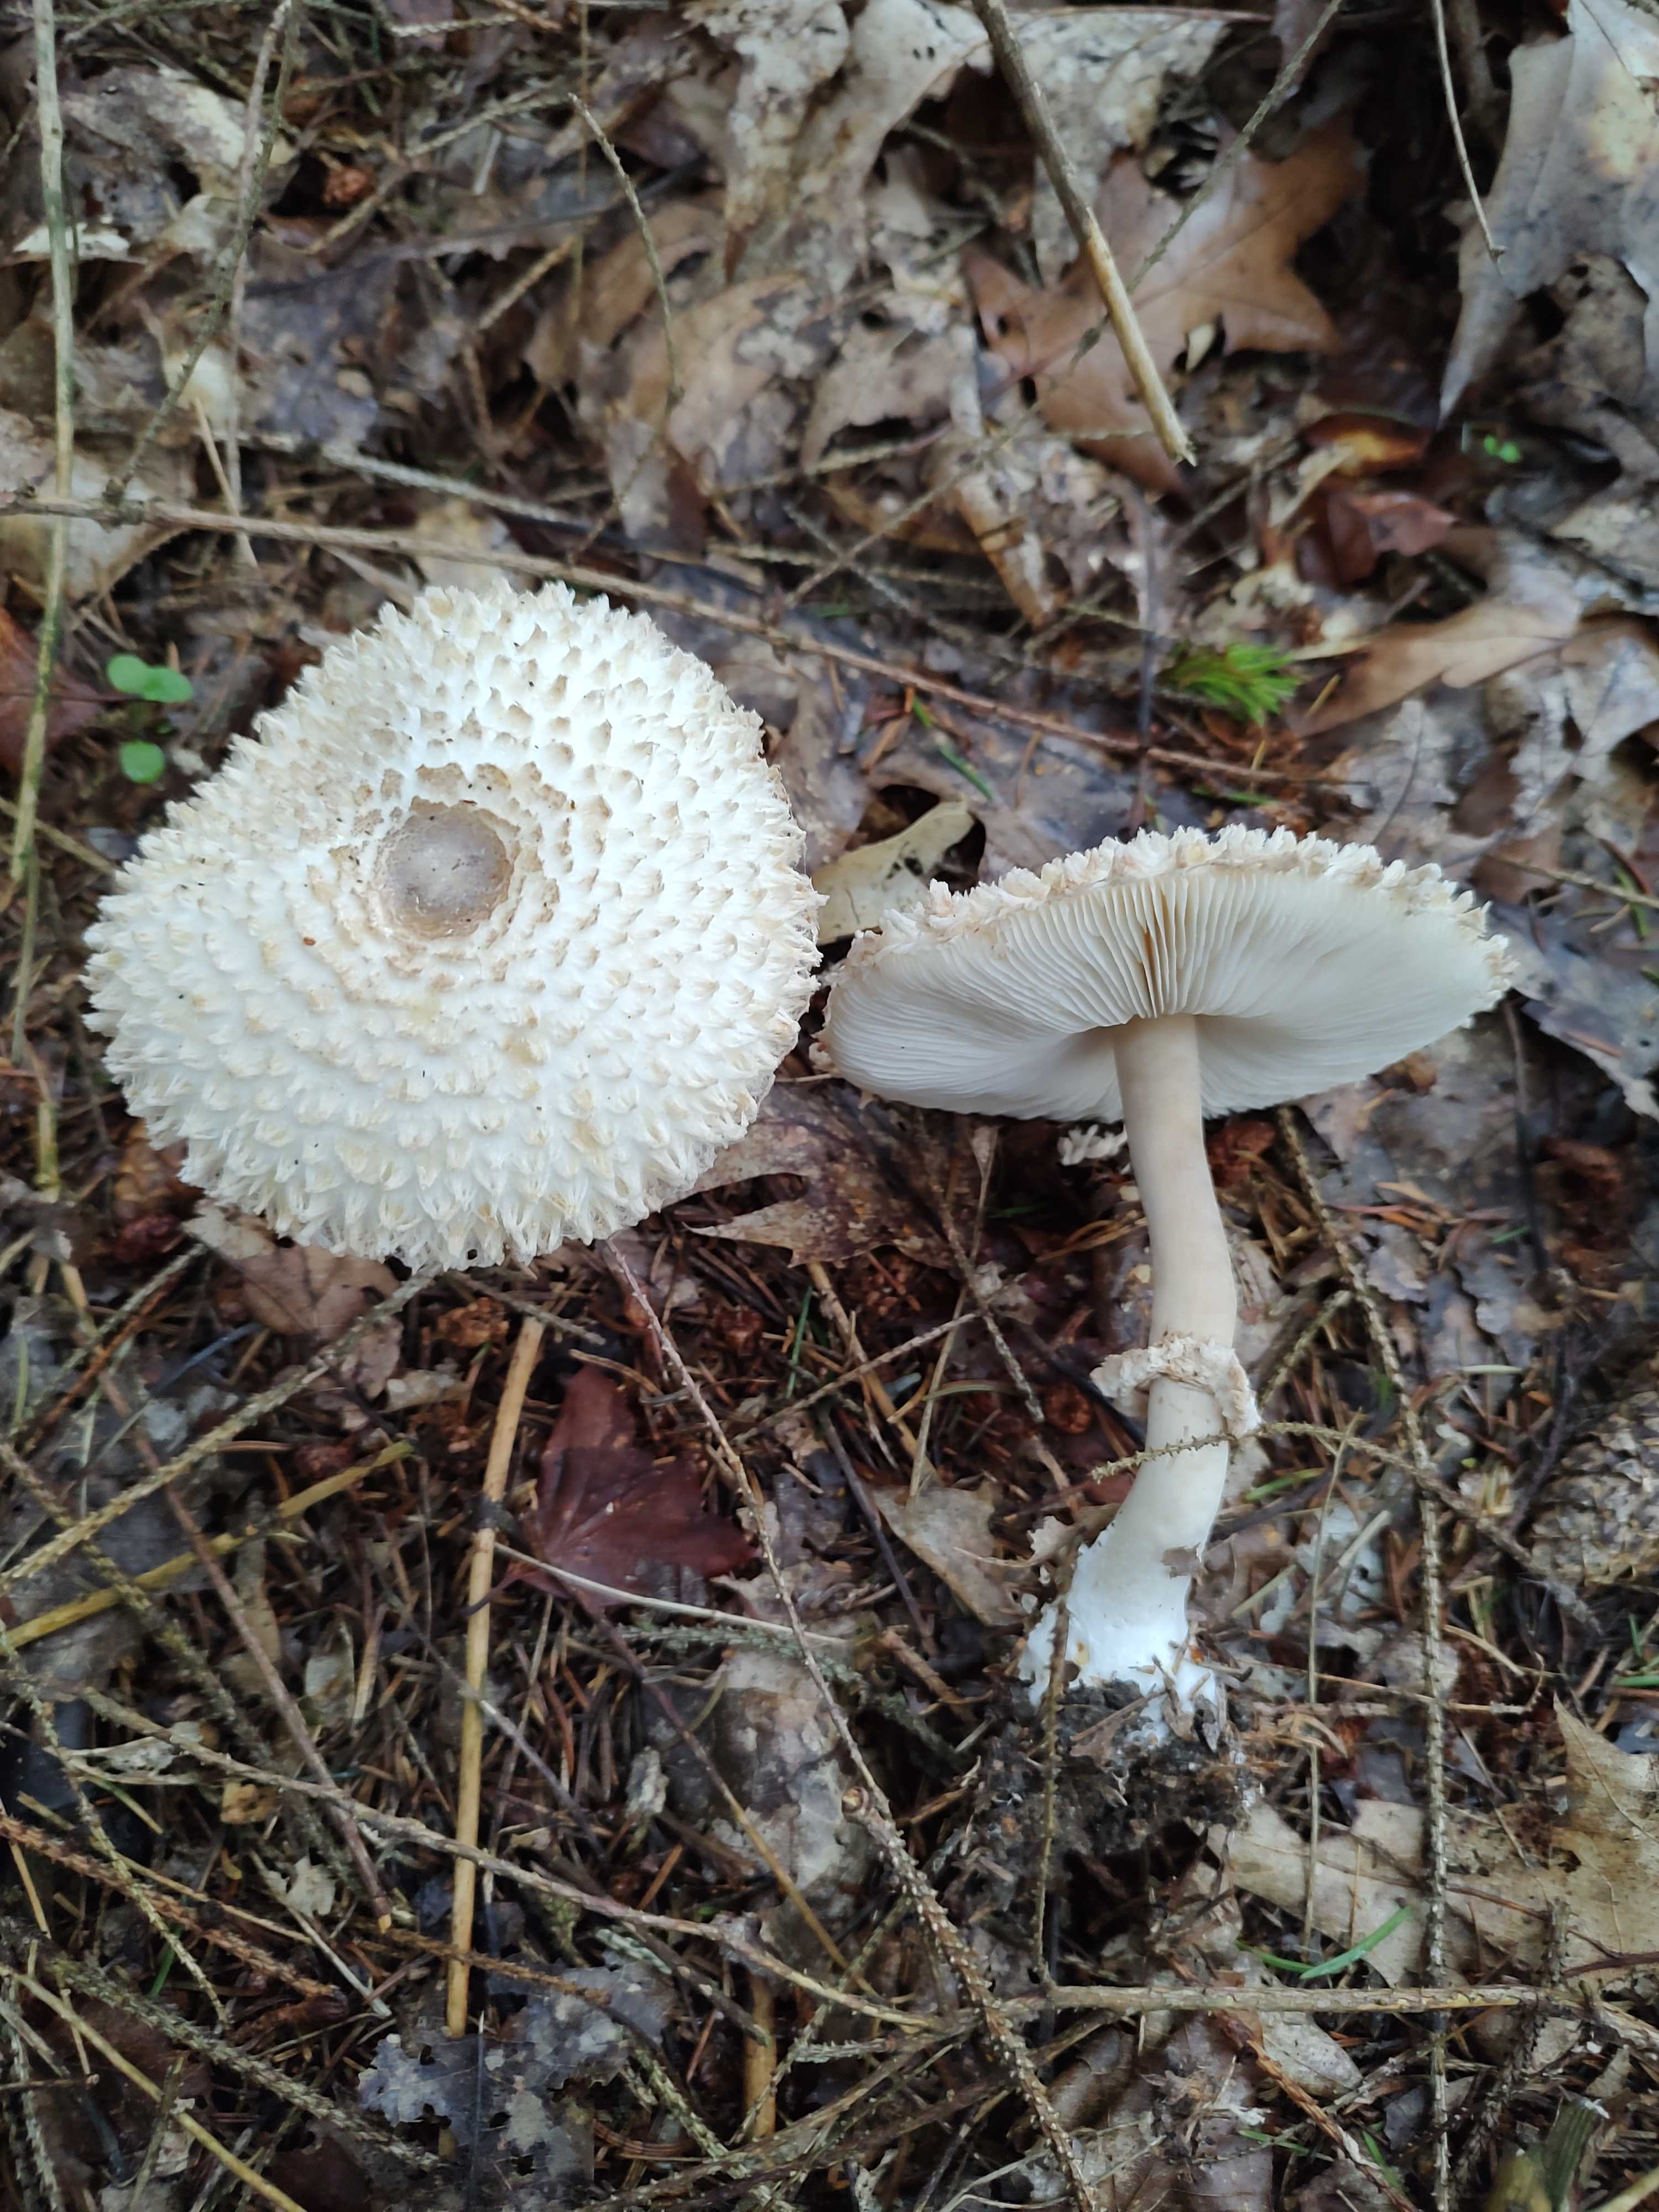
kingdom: Fungi
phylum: Basidiomycota
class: Agaricomycetes
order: Agaricales
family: Agaricaceae
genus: Leucoagaricus
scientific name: Leucoagaricus nympharum
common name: gran-silkehat
